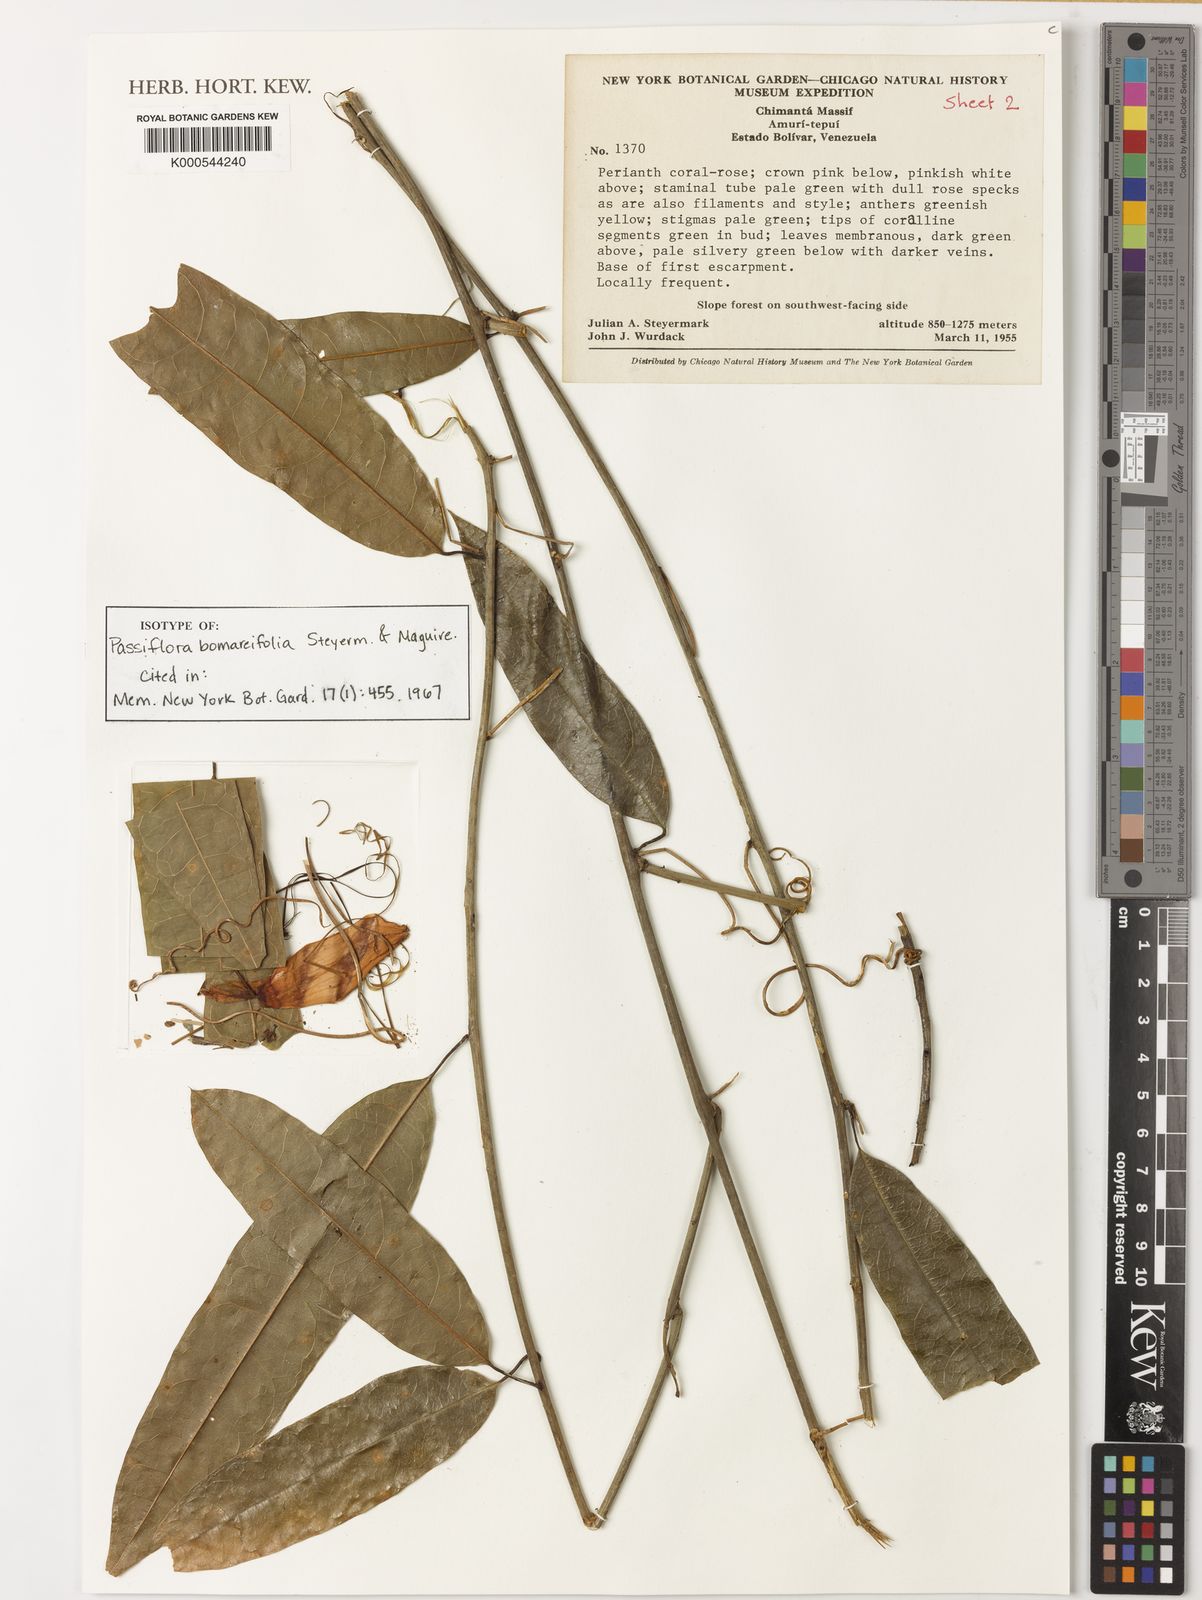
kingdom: Plantae
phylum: Tracheophyta
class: Magnoliopsida
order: Malpighiales
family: Passifloraceae
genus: Passiflora
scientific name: Passiflora variolata
